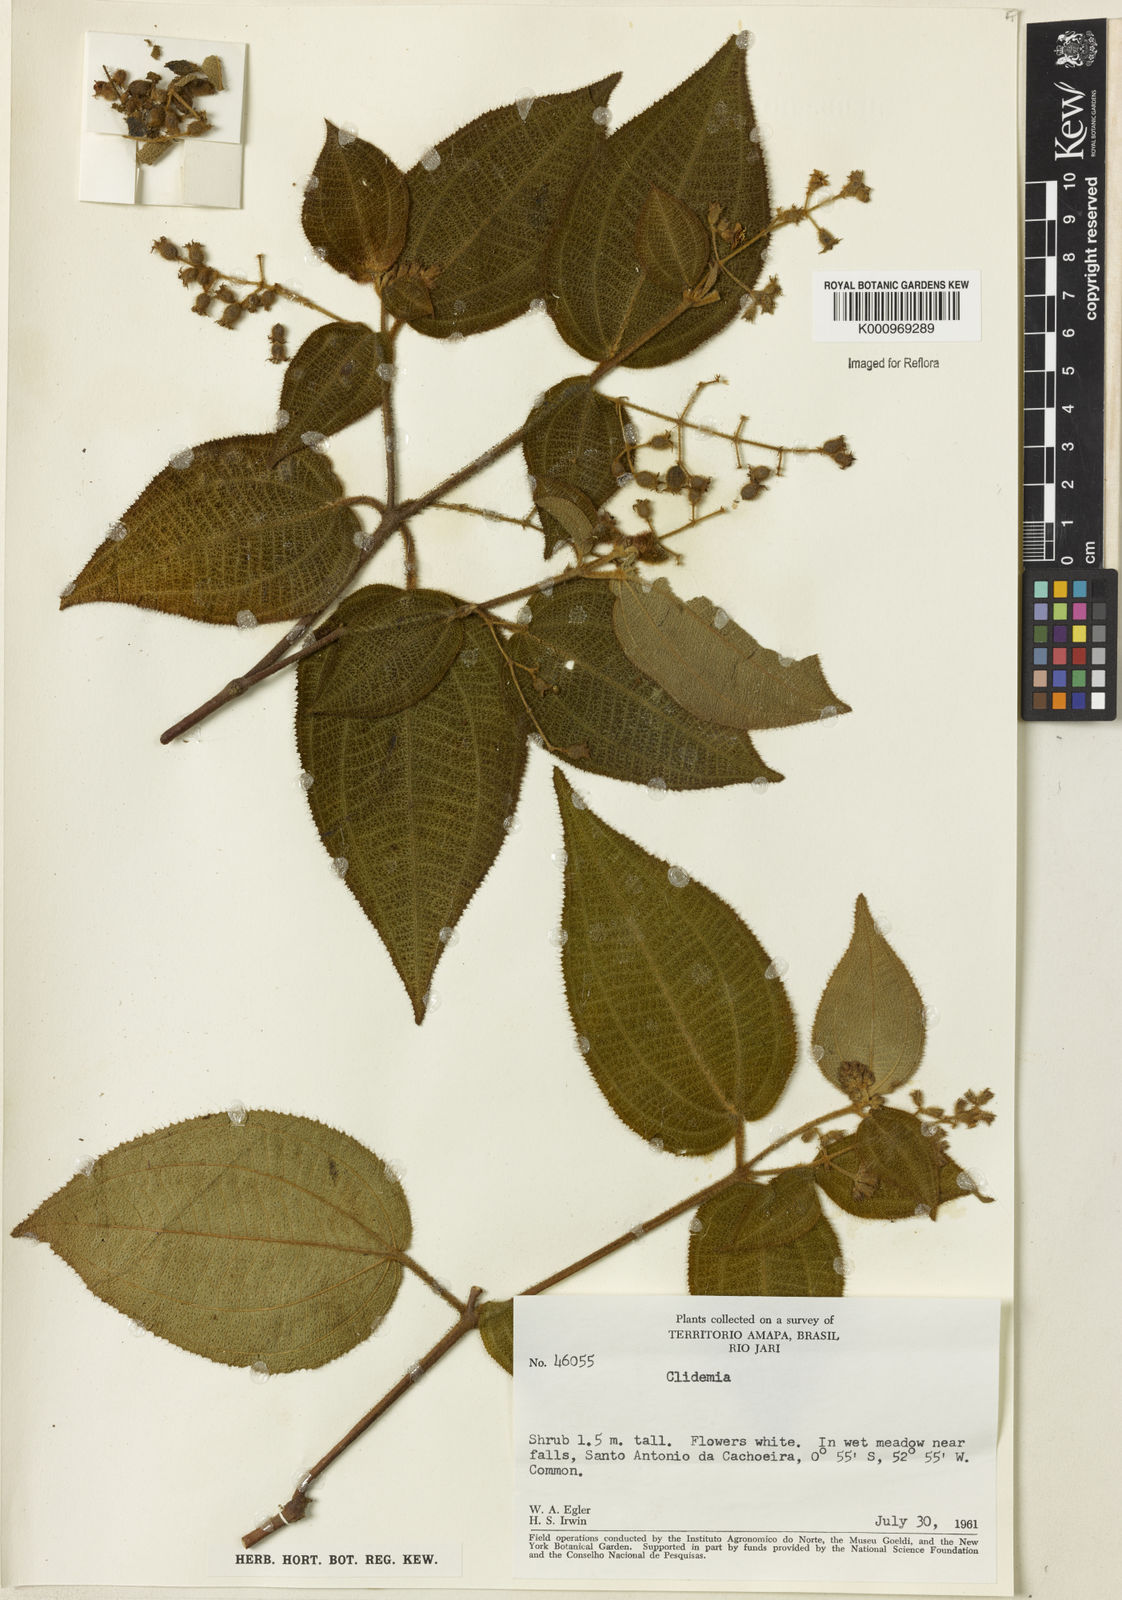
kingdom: Plantae
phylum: Tracheophyta
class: Magnoliopsida
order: Myrtales
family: Melastomataceae
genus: Miconia
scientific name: Miconia
